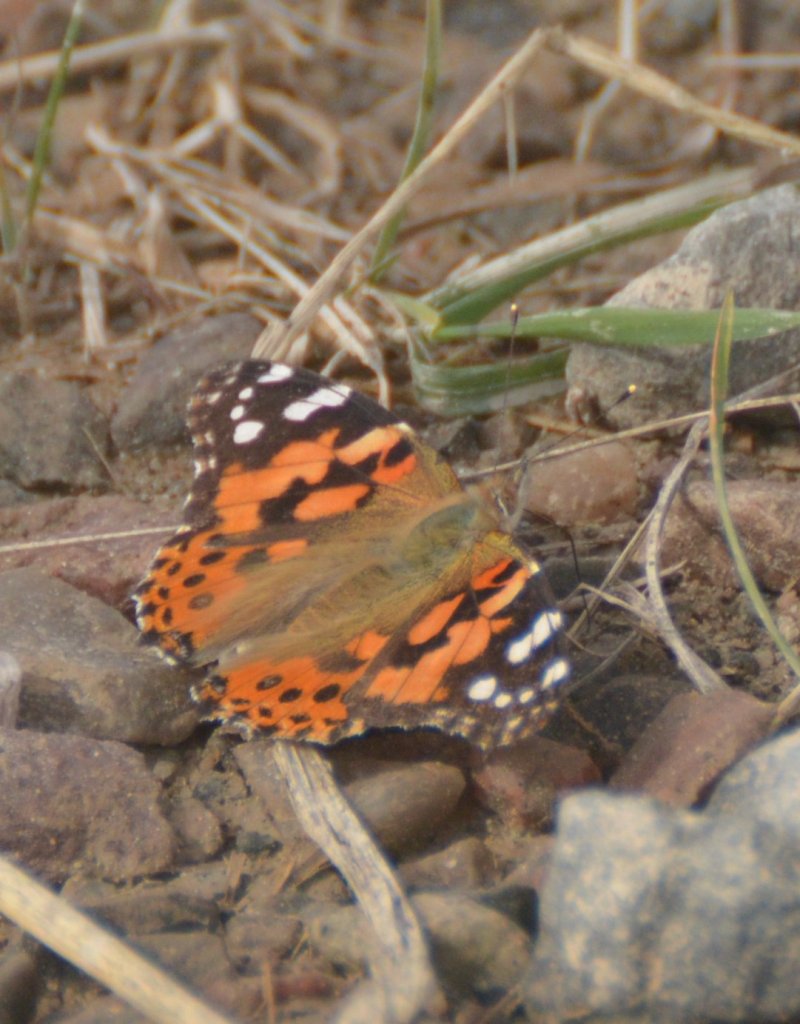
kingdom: Animalia
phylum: Arthropoda
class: Insecta
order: Lepidoptera
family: Nymphalidae
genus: Vanessa
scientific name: Vanessa cardui
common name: Painted Lady
